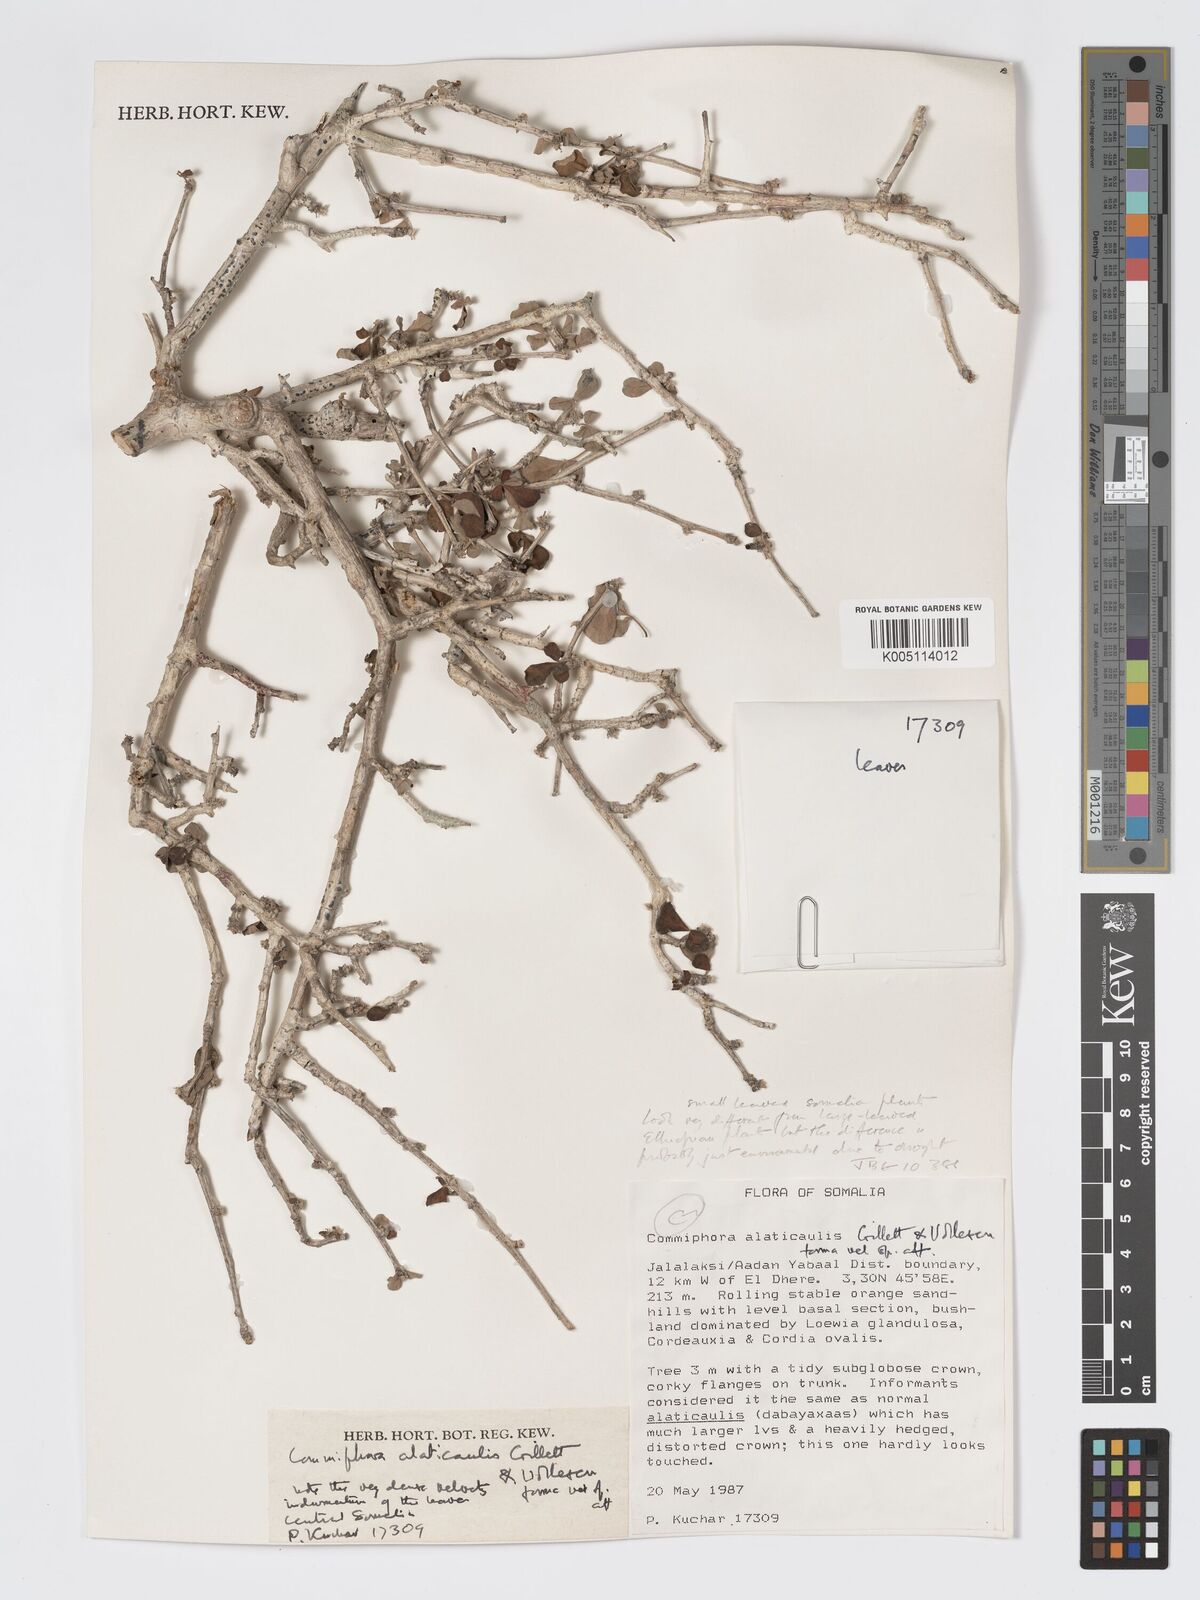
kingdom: Plantae
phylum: Tracheophyta
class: Magnoliopsida
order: Sapindales
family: Burseraceae
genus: Commiphora
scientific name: Commiphora alaticaulis
